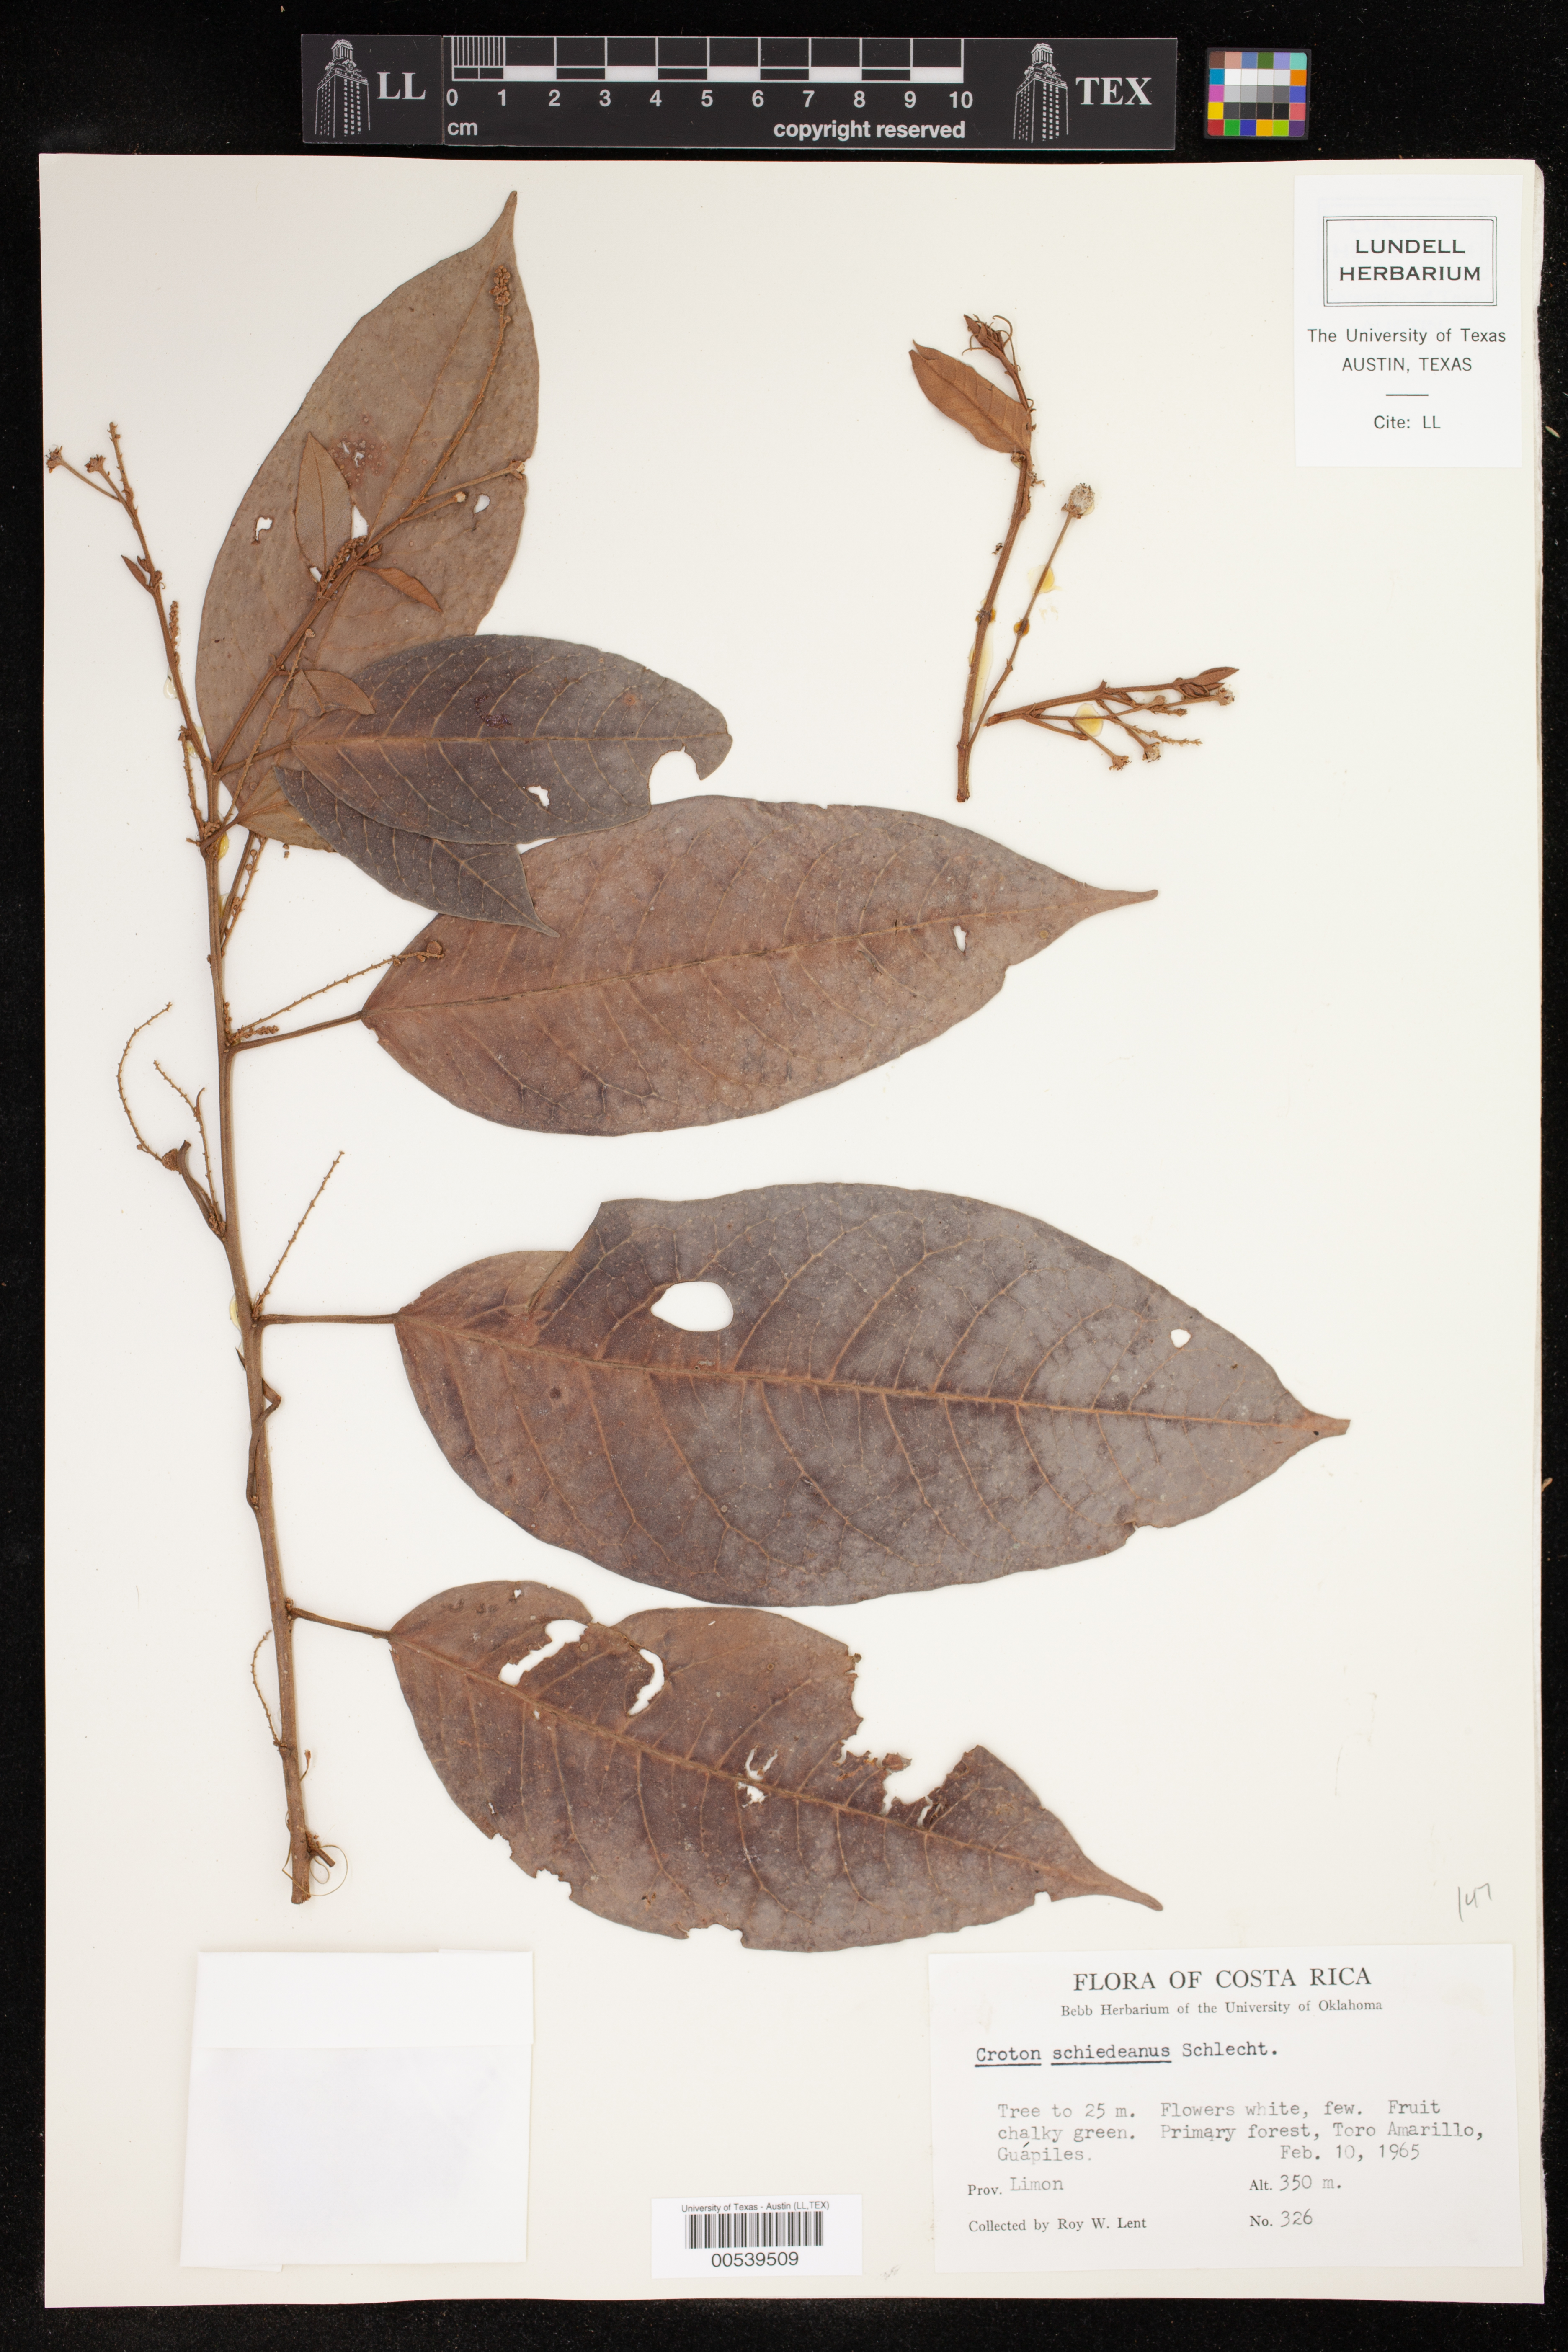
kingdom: Plantae
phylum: Tracheophyta
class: Magnoliopsida
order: Malpighiales
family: Euphorbiaceae
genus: Croton
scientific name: Croton schiedeanus
